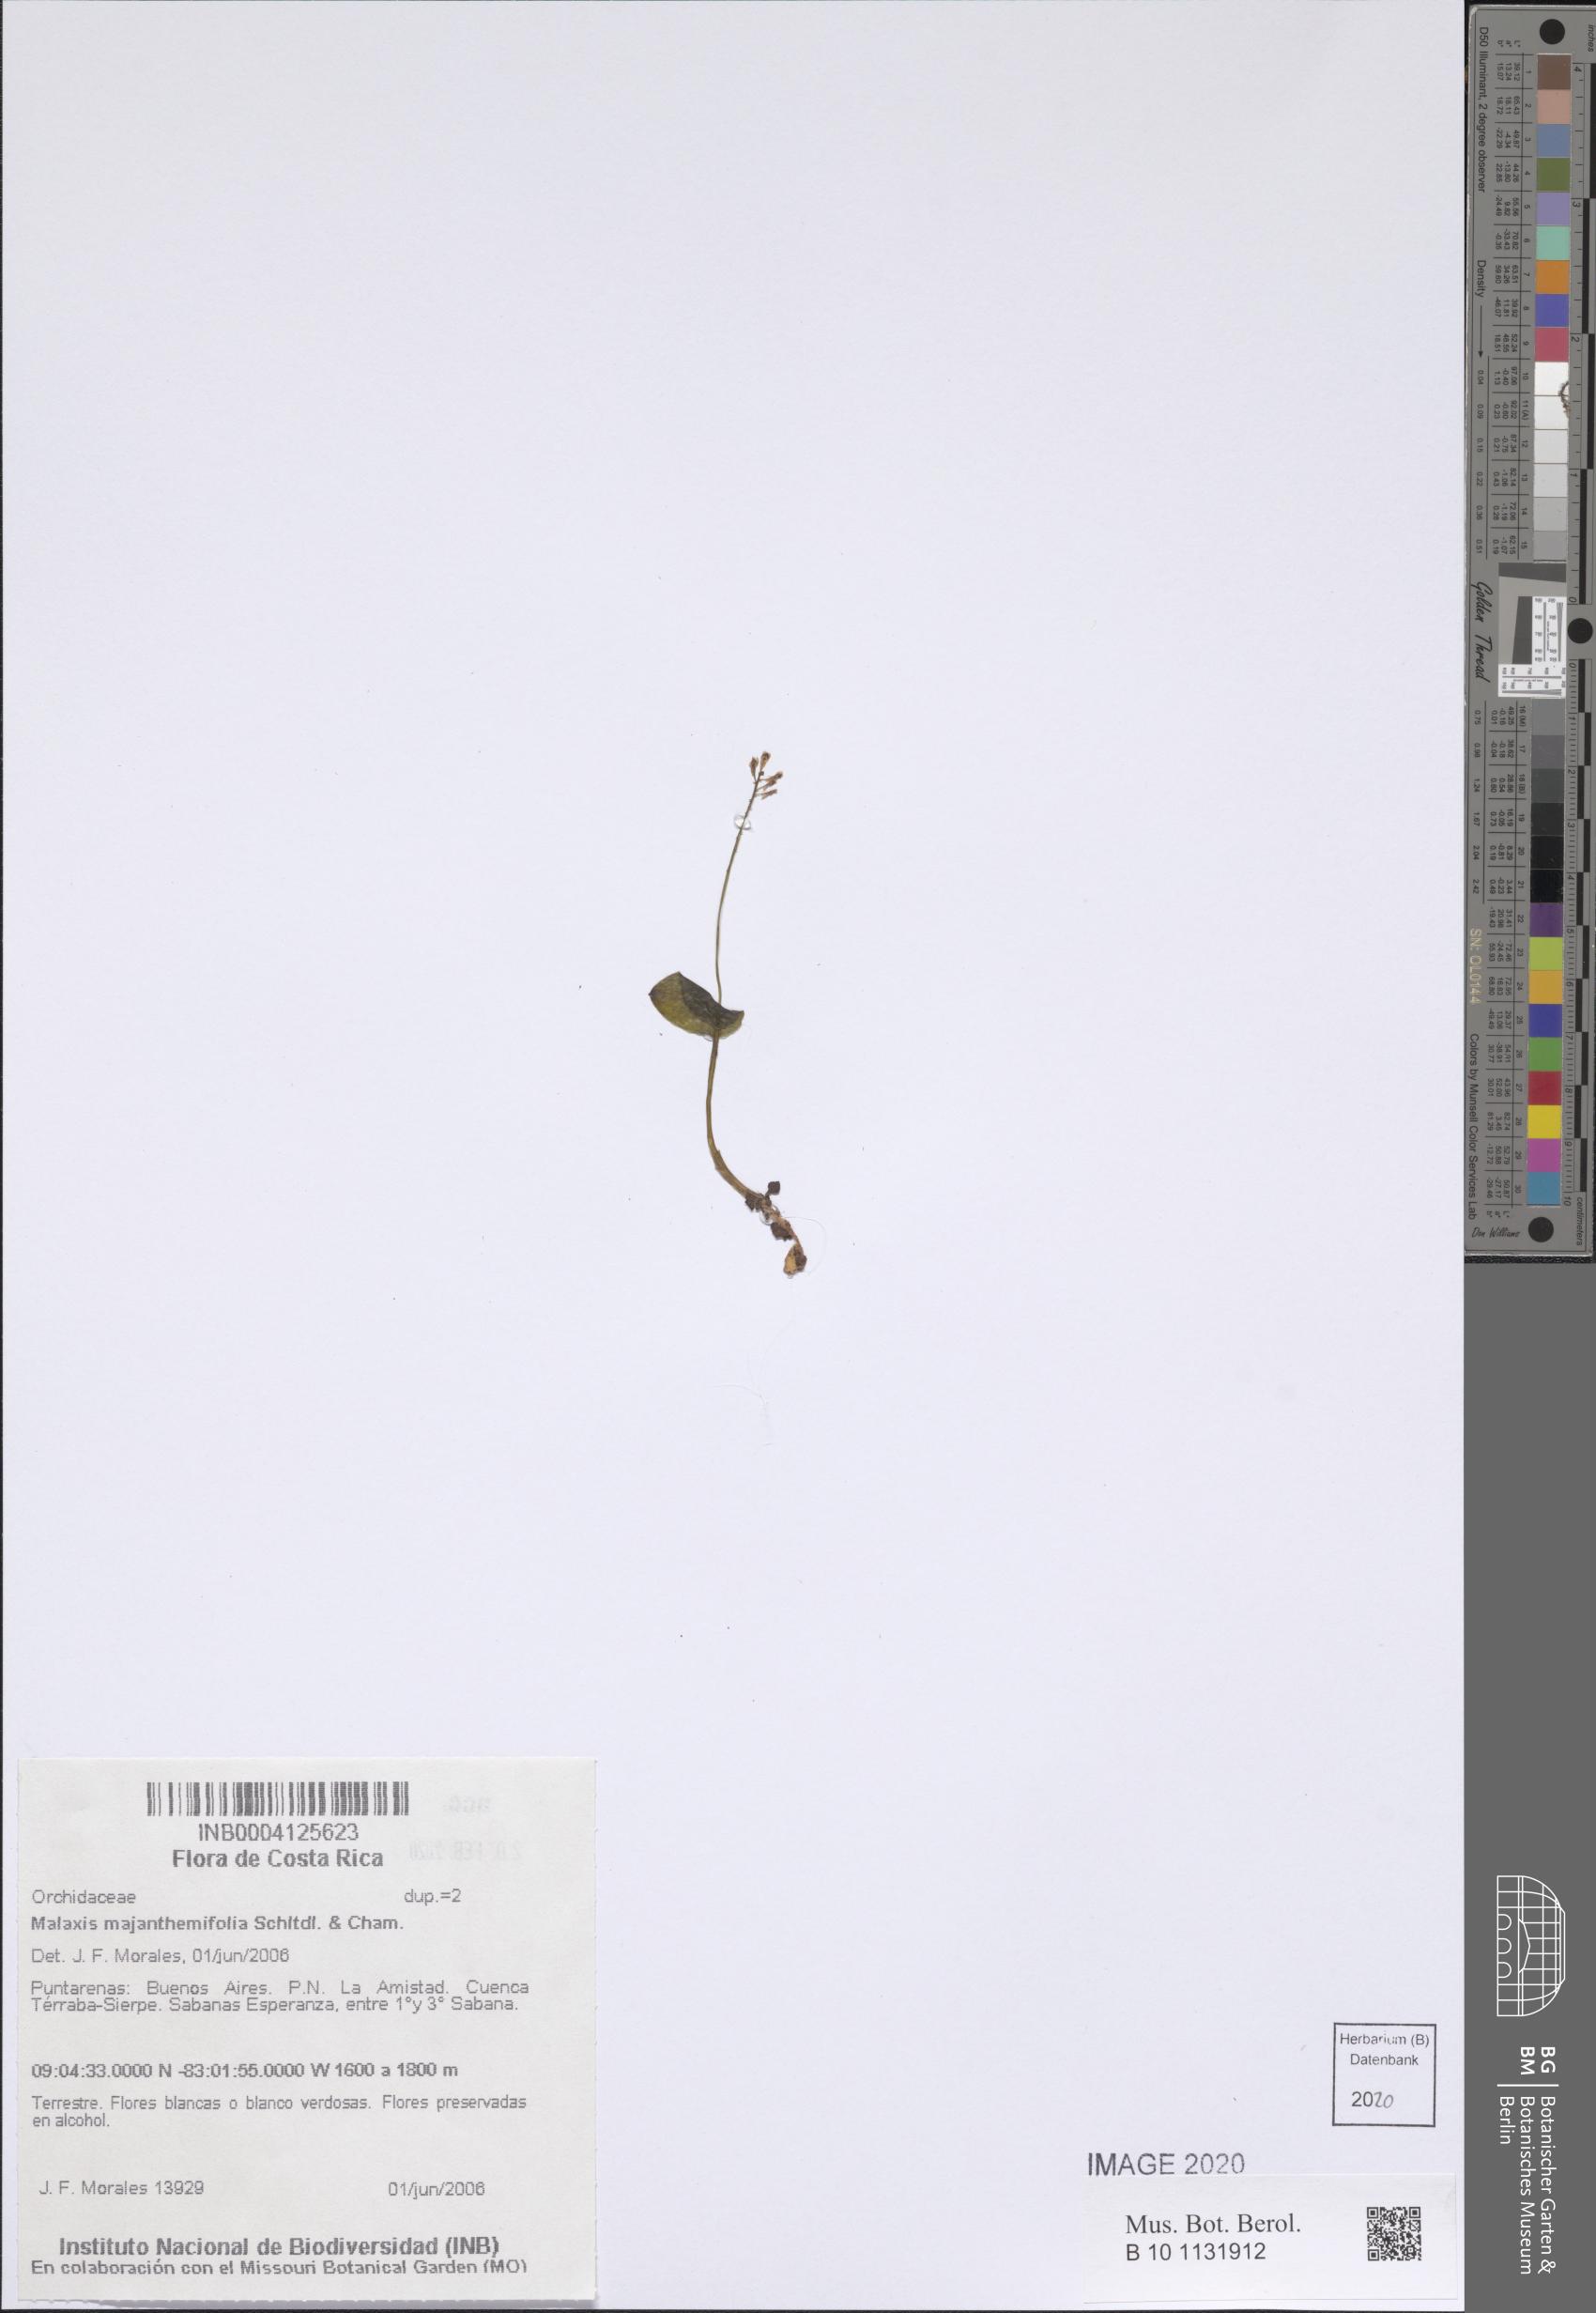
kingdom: Plantae
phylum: Tracheophyta
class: Liliopsida
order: Asparagales
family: Orchidaceae
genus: Malaxis
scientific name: Malaxis maianthemifolia
